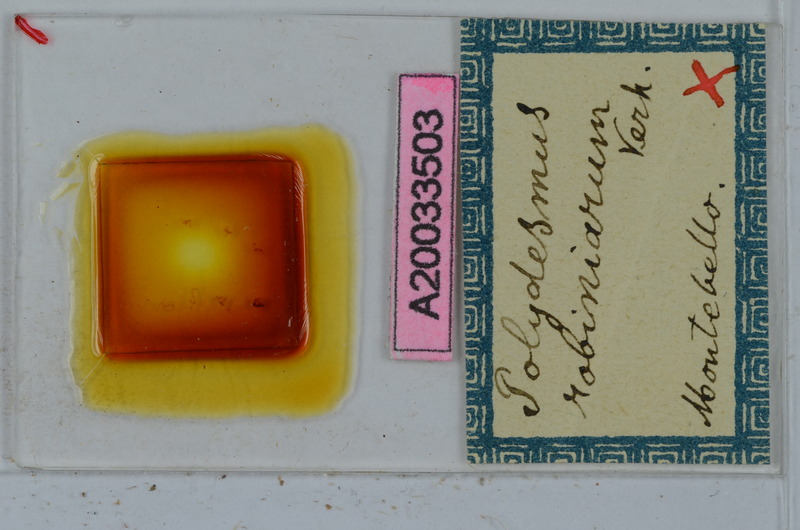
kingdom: Animalia
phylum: Arthropoda
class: Diplopoda
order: Polydesmida
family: Polydesmidae
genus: Polydesmus
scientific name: Polydesmus robiniarum
